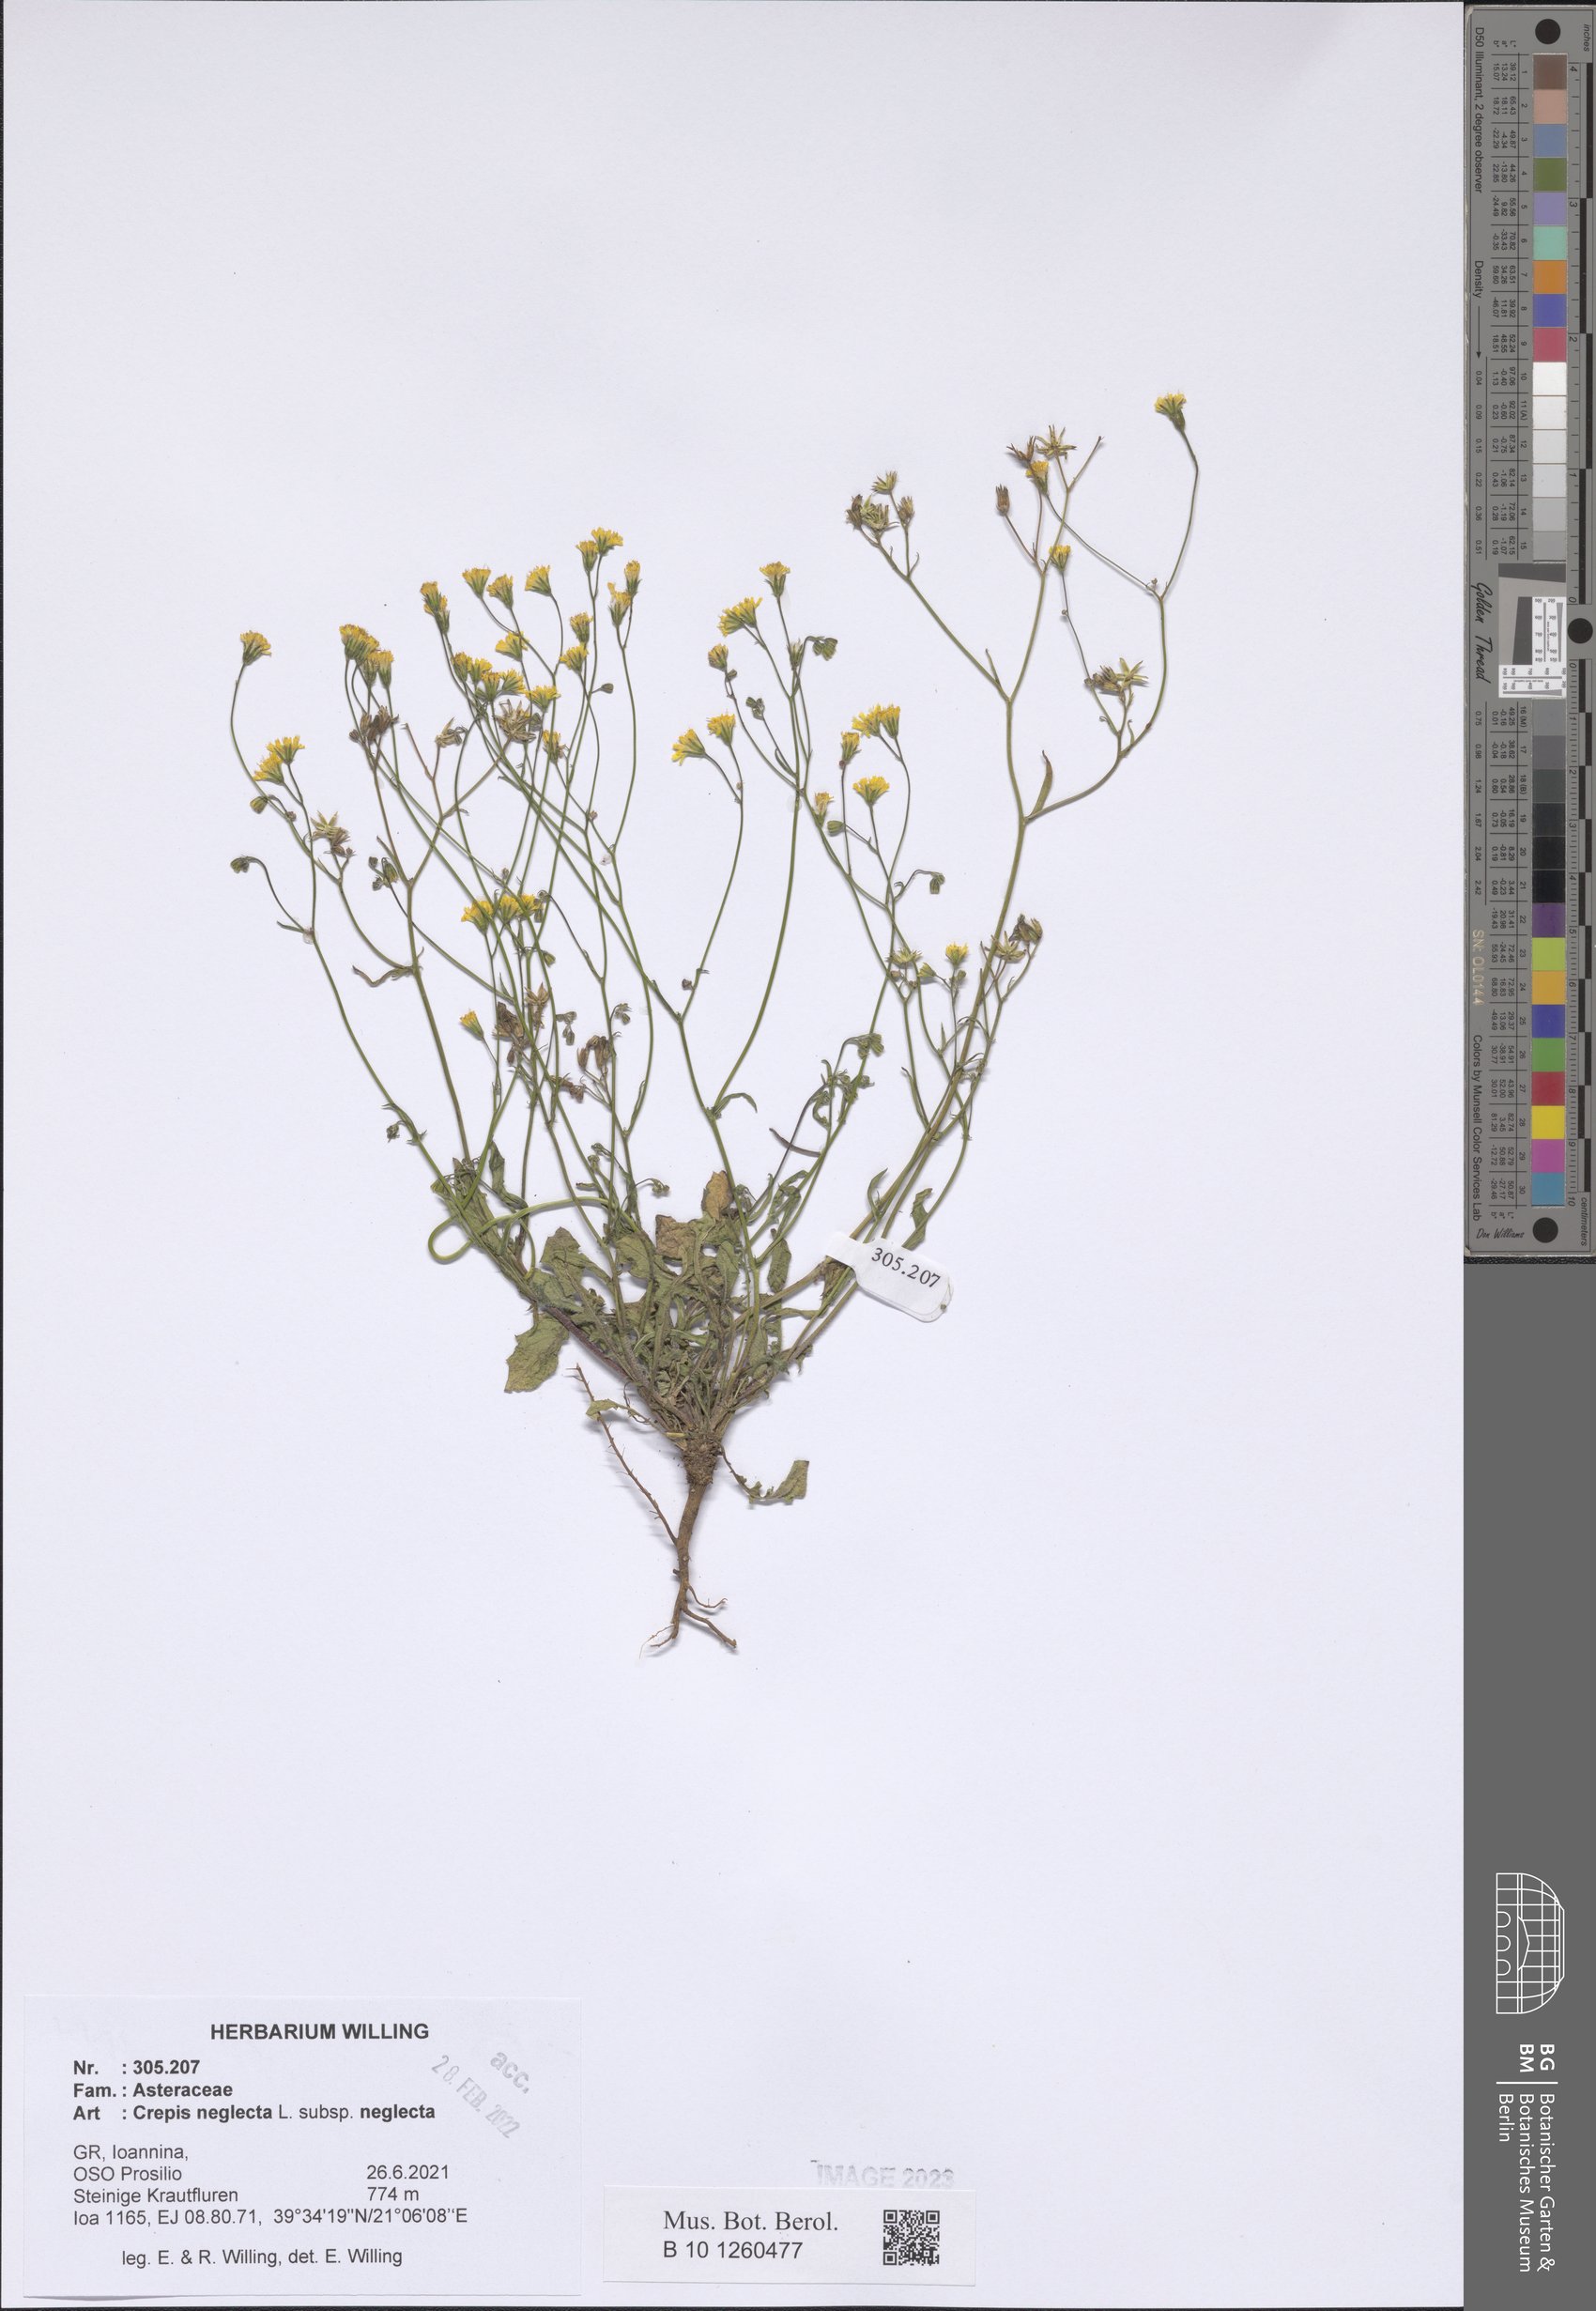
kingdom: Plantae
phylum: Tracheophyta
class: Magnoliopsida
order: Asterales
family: Asteraceae
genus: Crepis
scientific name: Crepis neglecta
